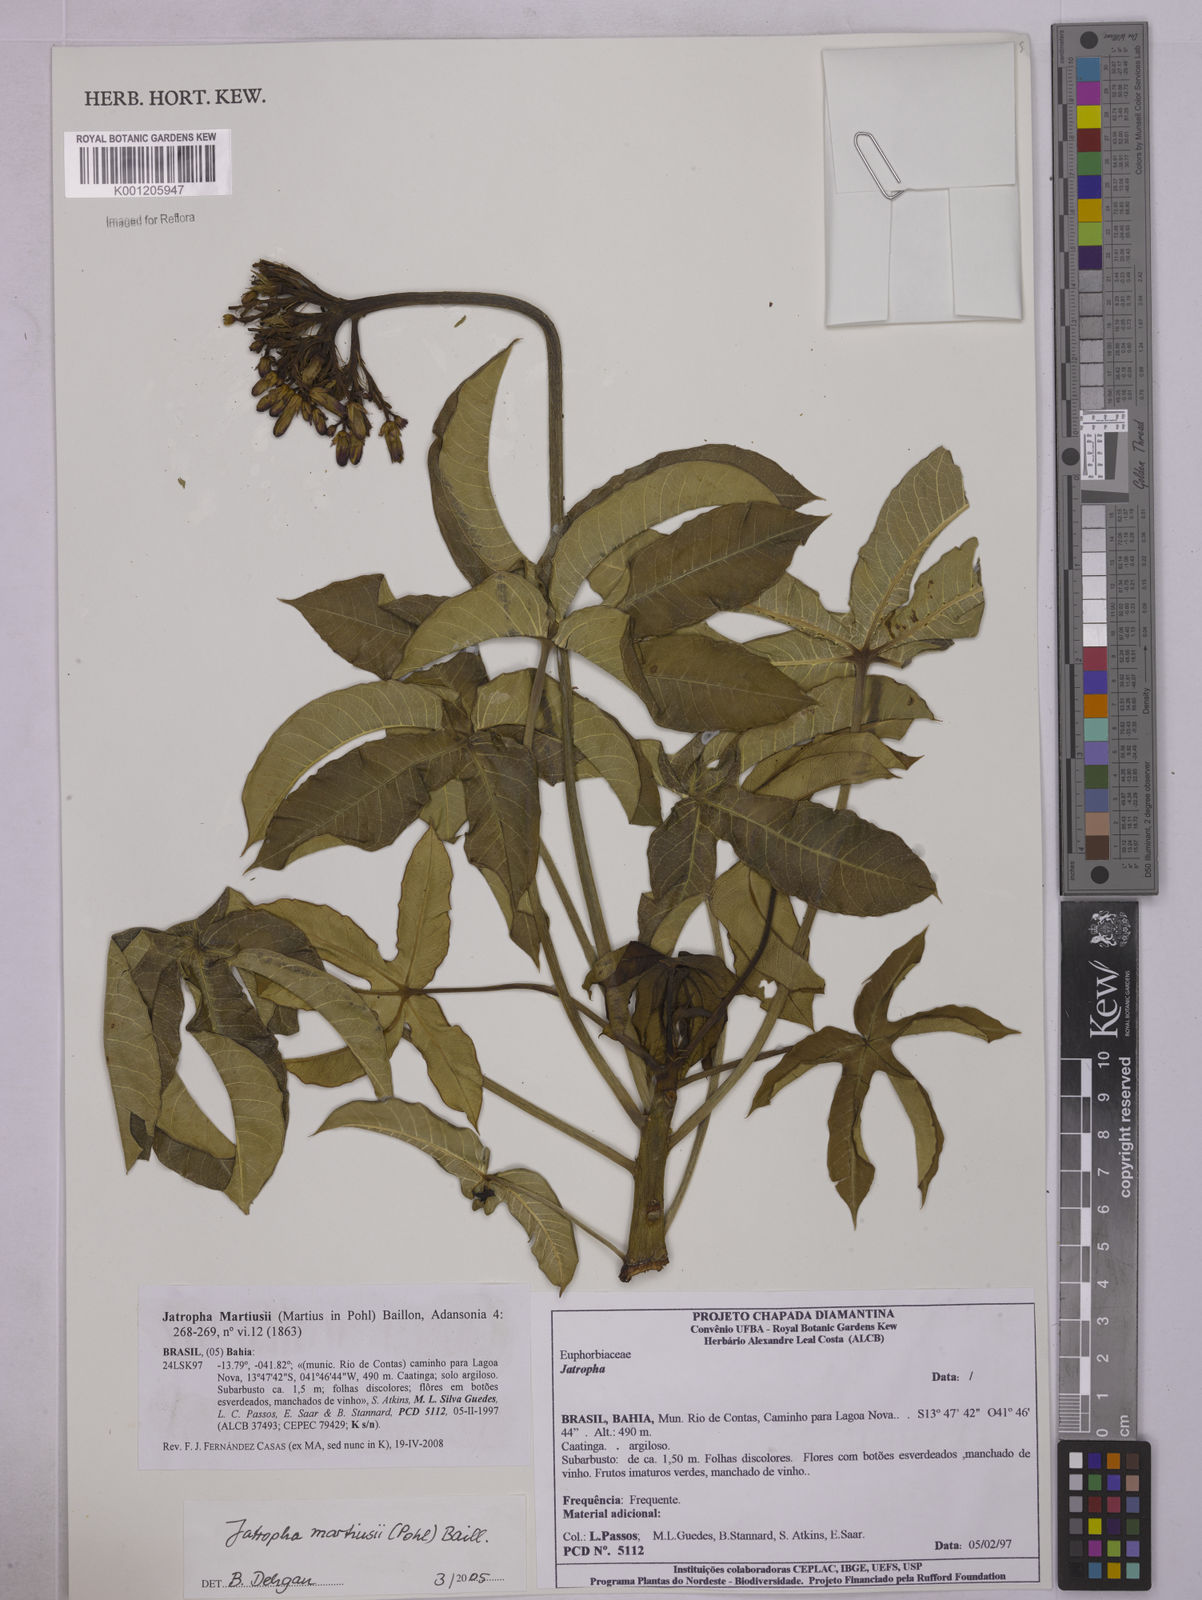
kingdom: Plantae
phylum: Tracheophyta
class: Magnoliopsida
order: Malpighiales
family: Euphorbiaceae
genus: Jatropha
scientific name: Jatropha martiusii
